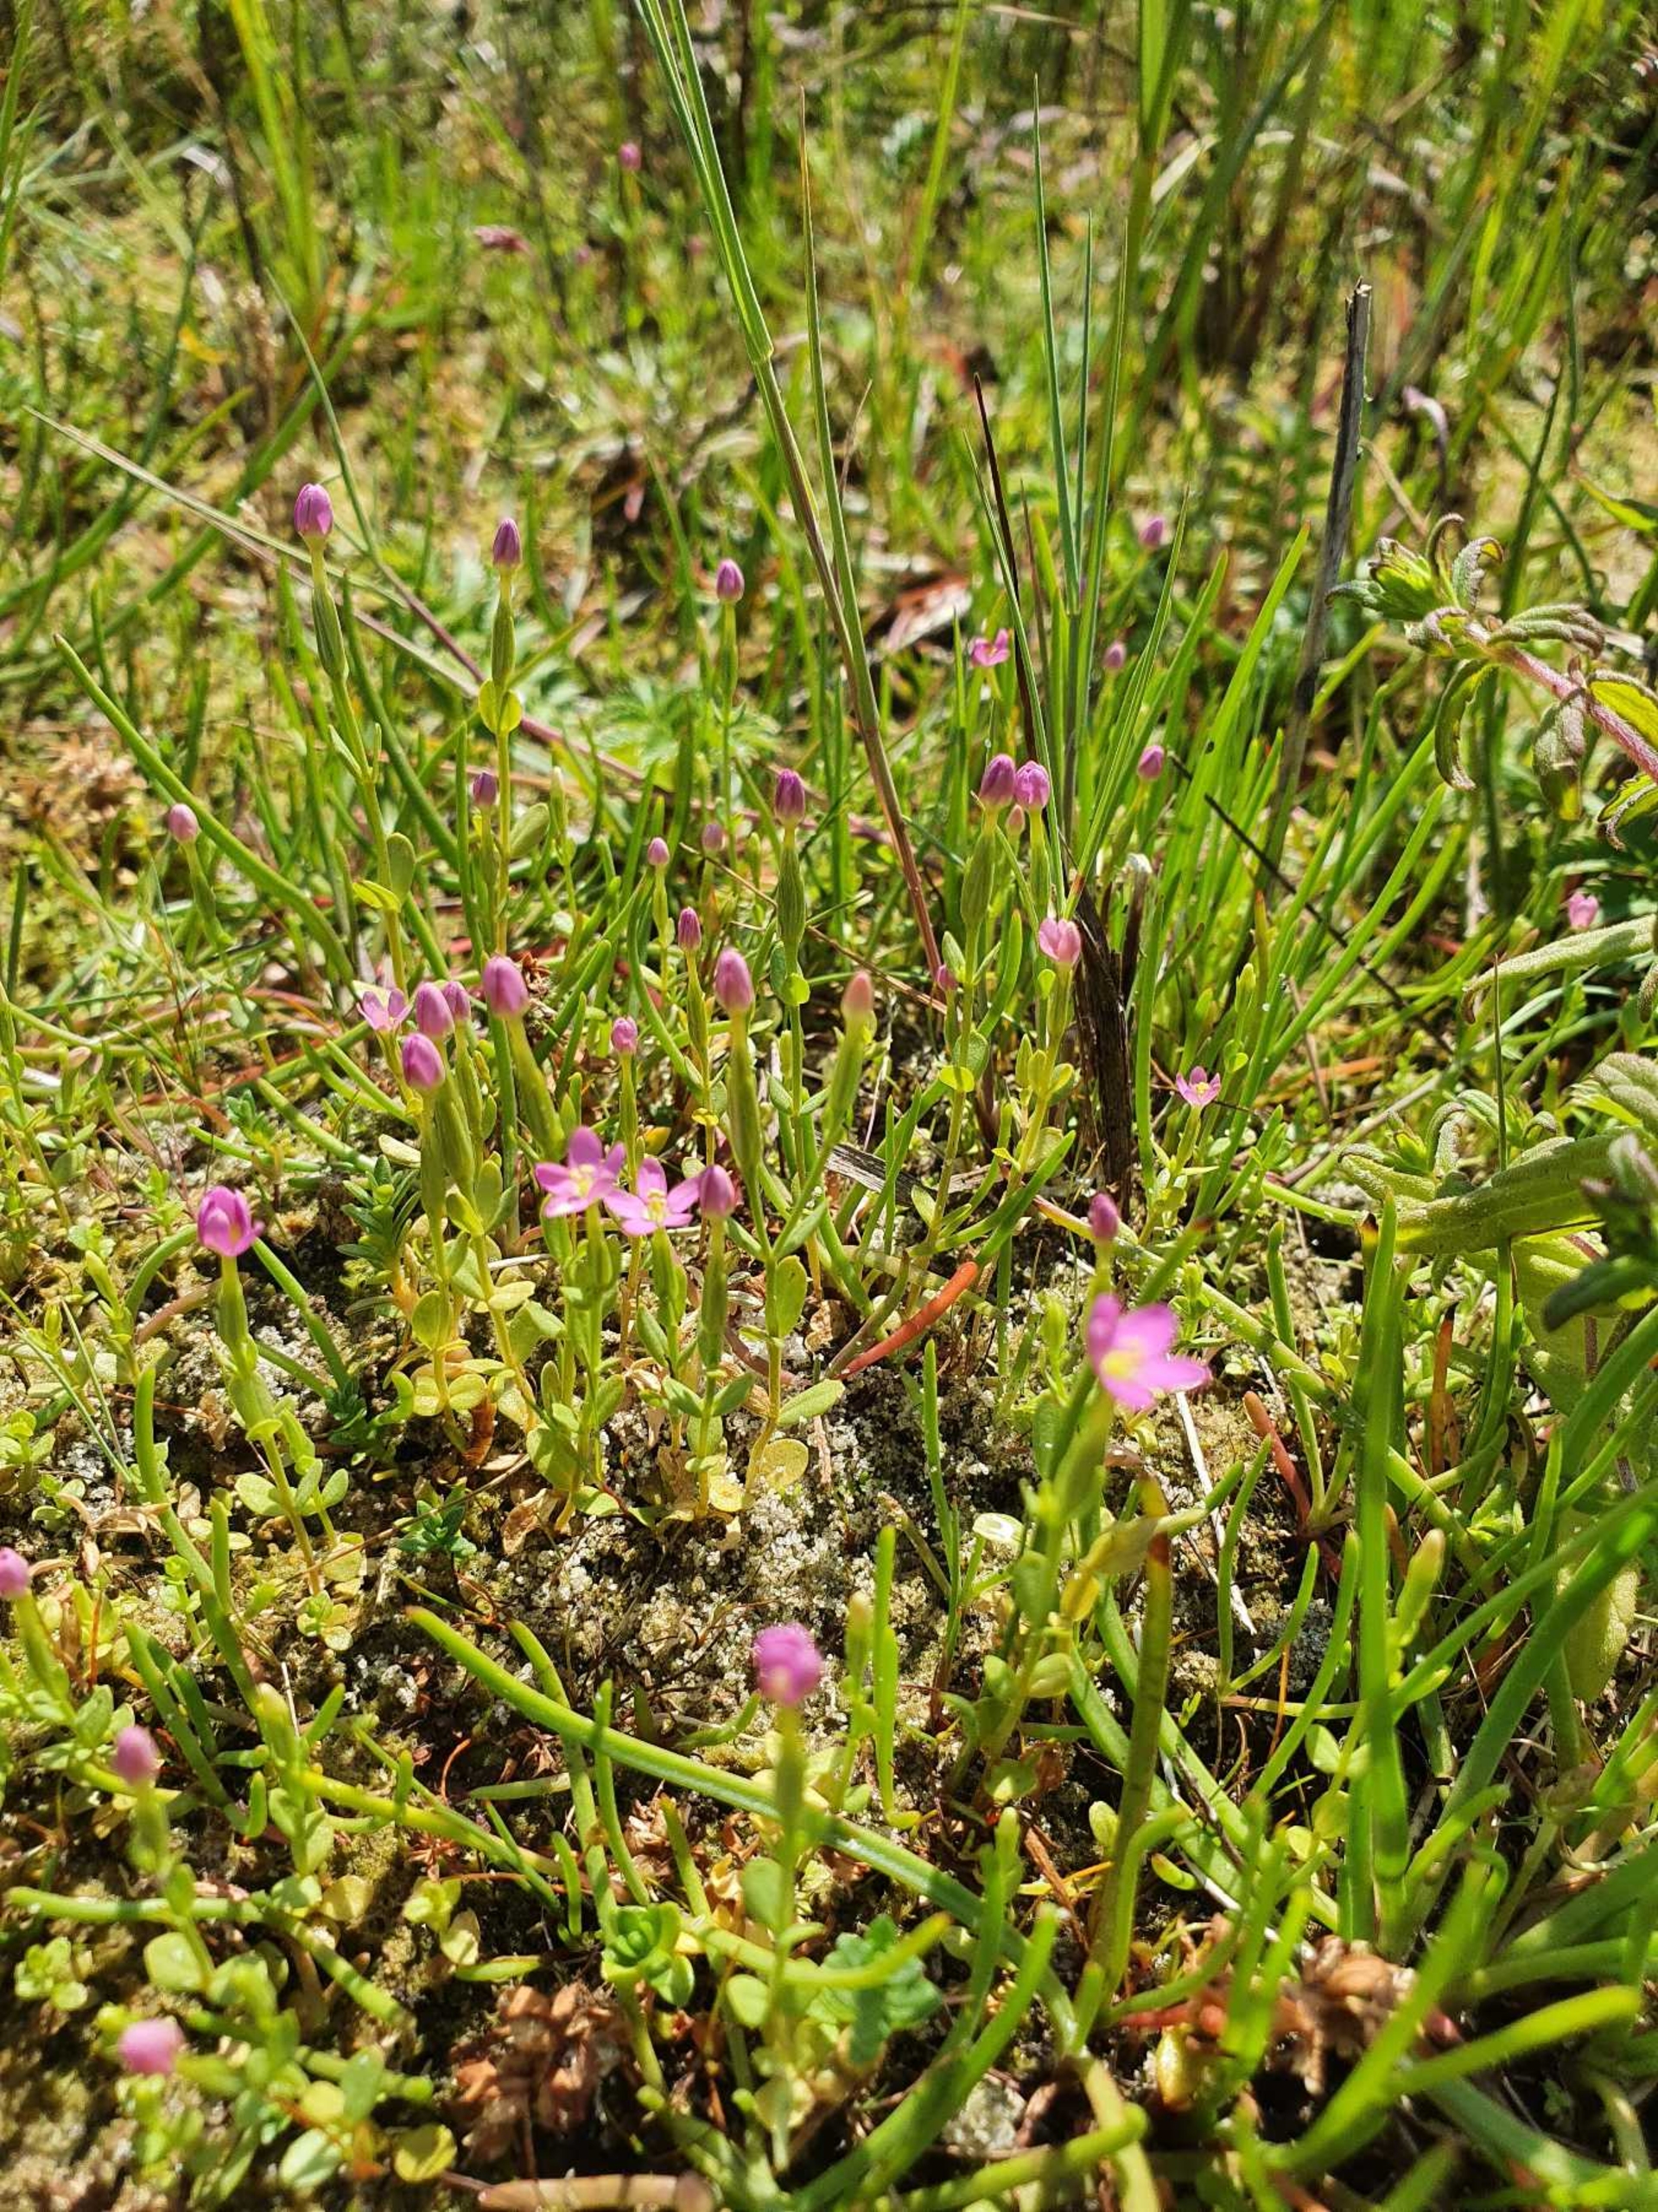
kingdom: Plantae
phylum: Tracheophyta
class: Magnoliopsida
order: Gentianales
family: Gentianaceae
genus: Centaurium
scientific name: Centaurium pulchellum
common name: Liden tusindgylden
